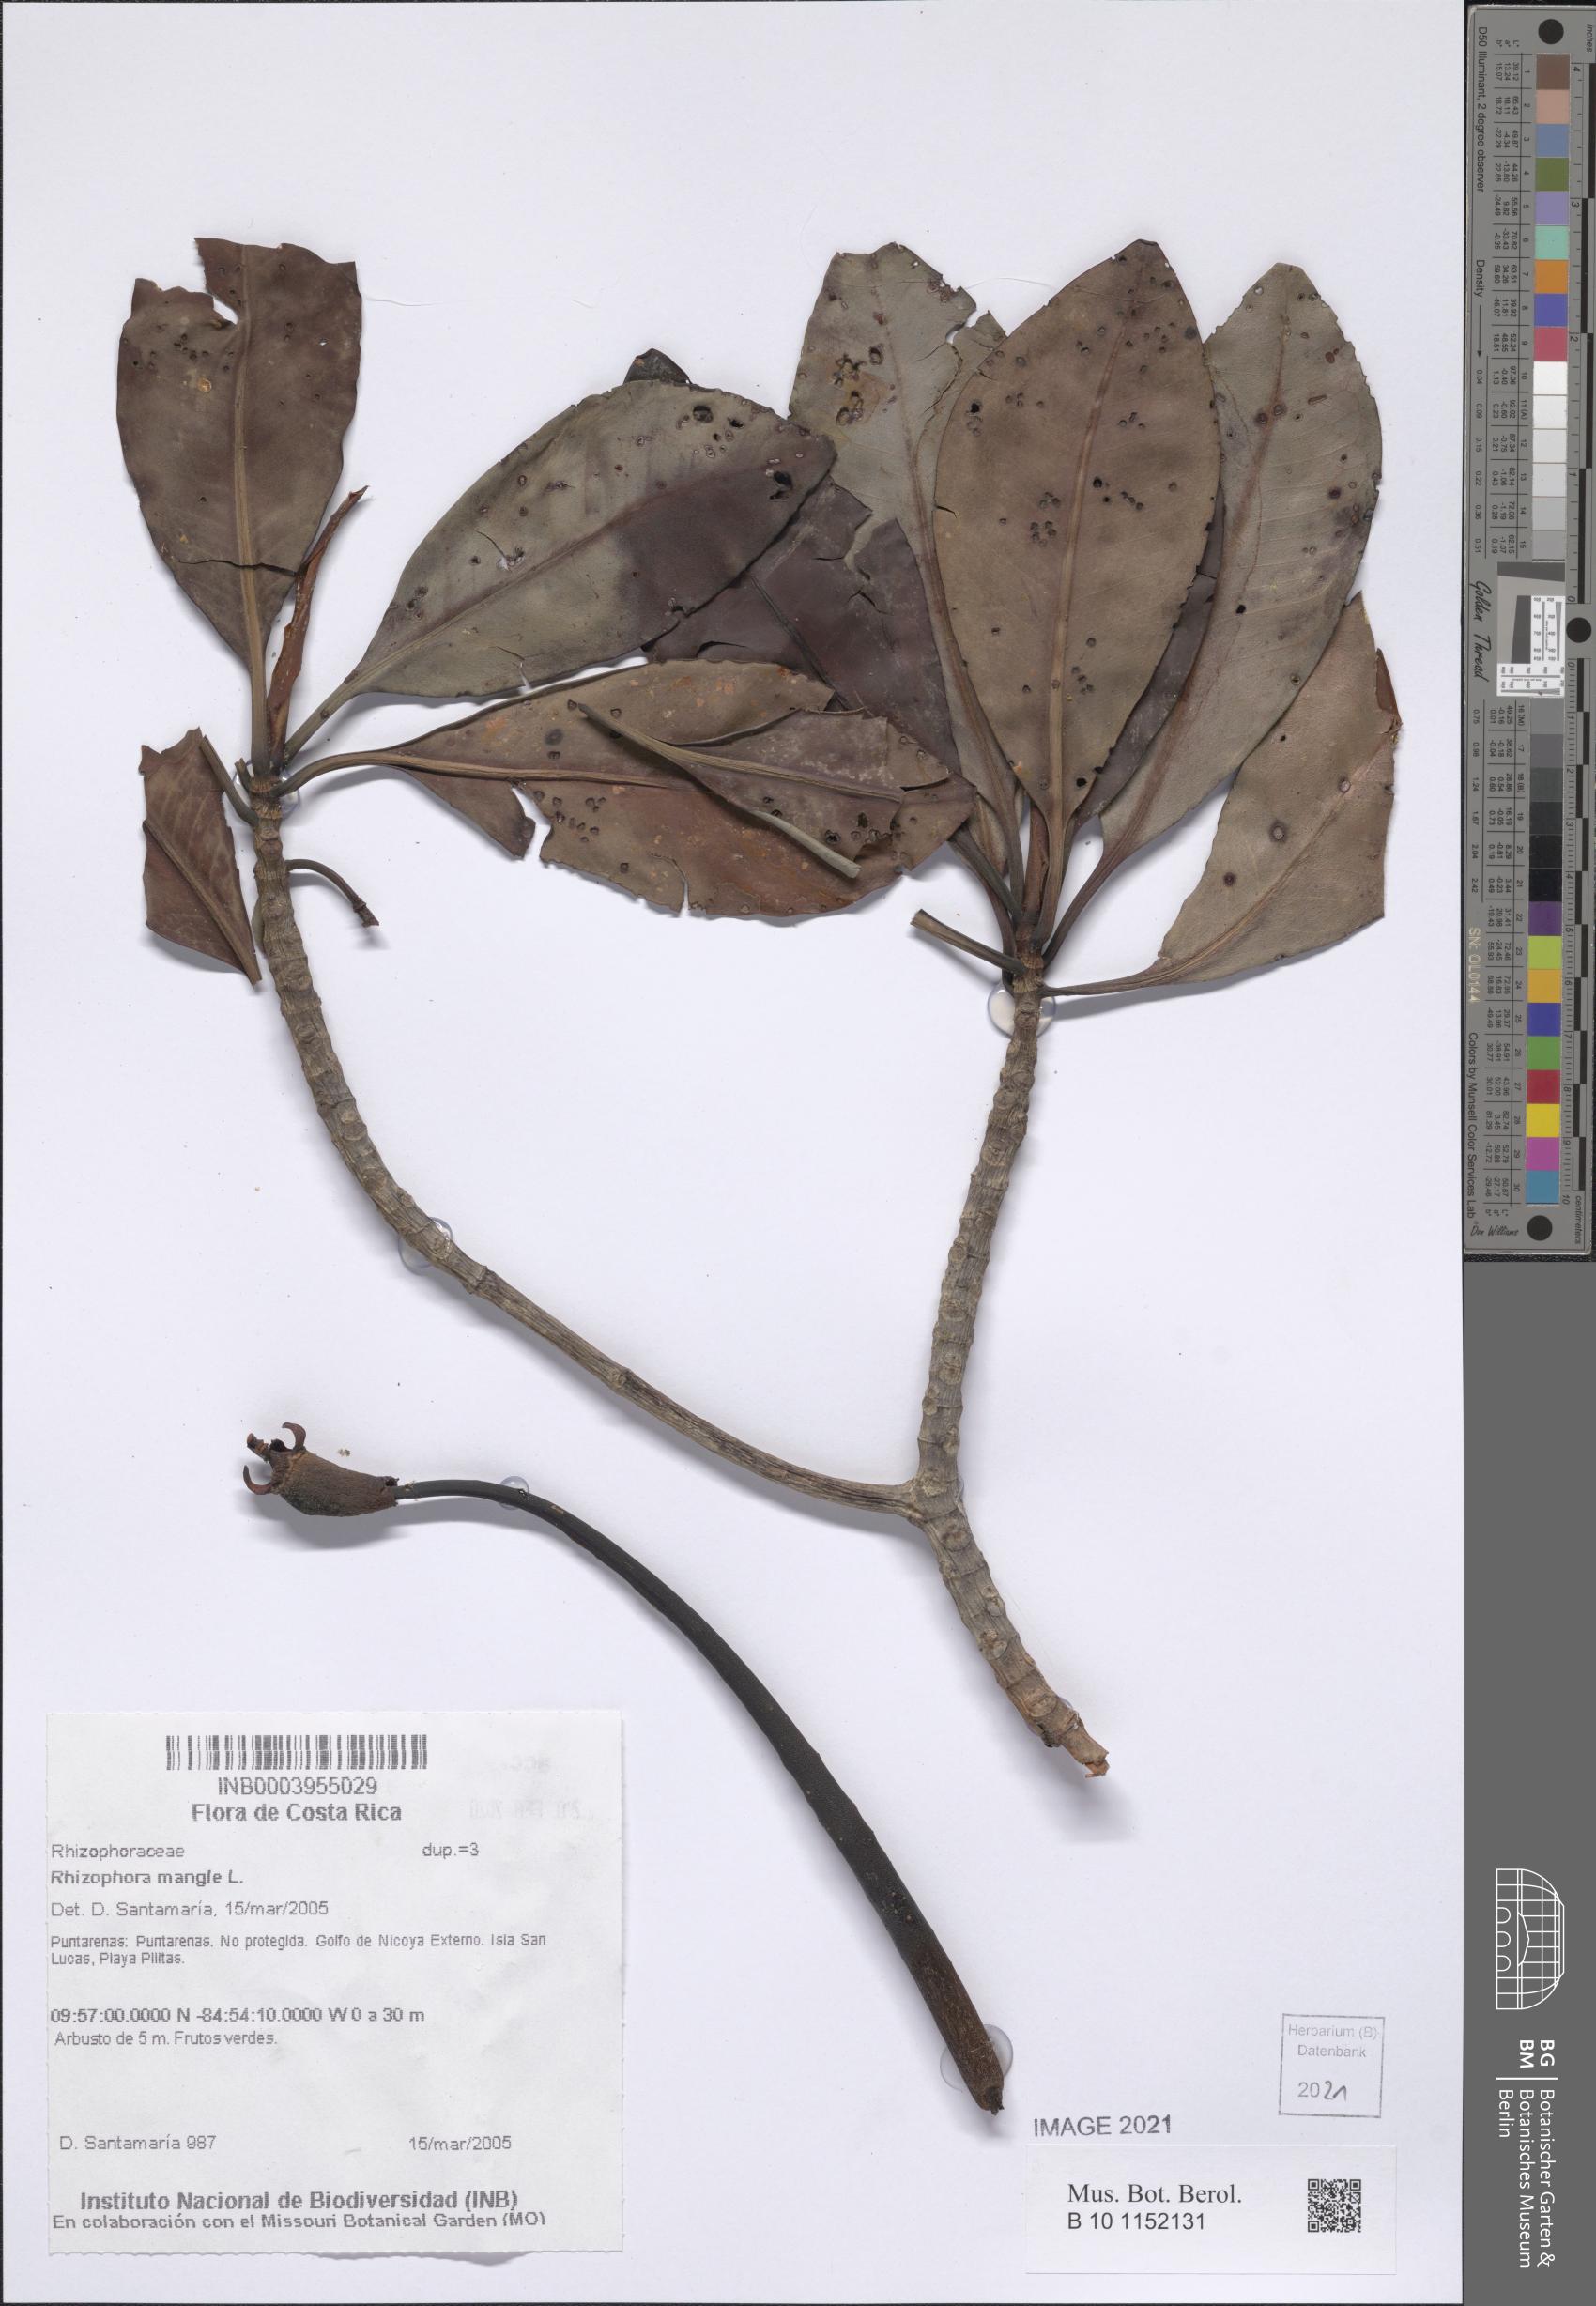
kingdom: Plantae
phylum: Tracheophyta
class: Magnoliopsida
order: Malpighiales
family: Rhizophoraceae
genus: Rhizophora
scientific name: Rhizophora mangle
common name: Red mangrove
